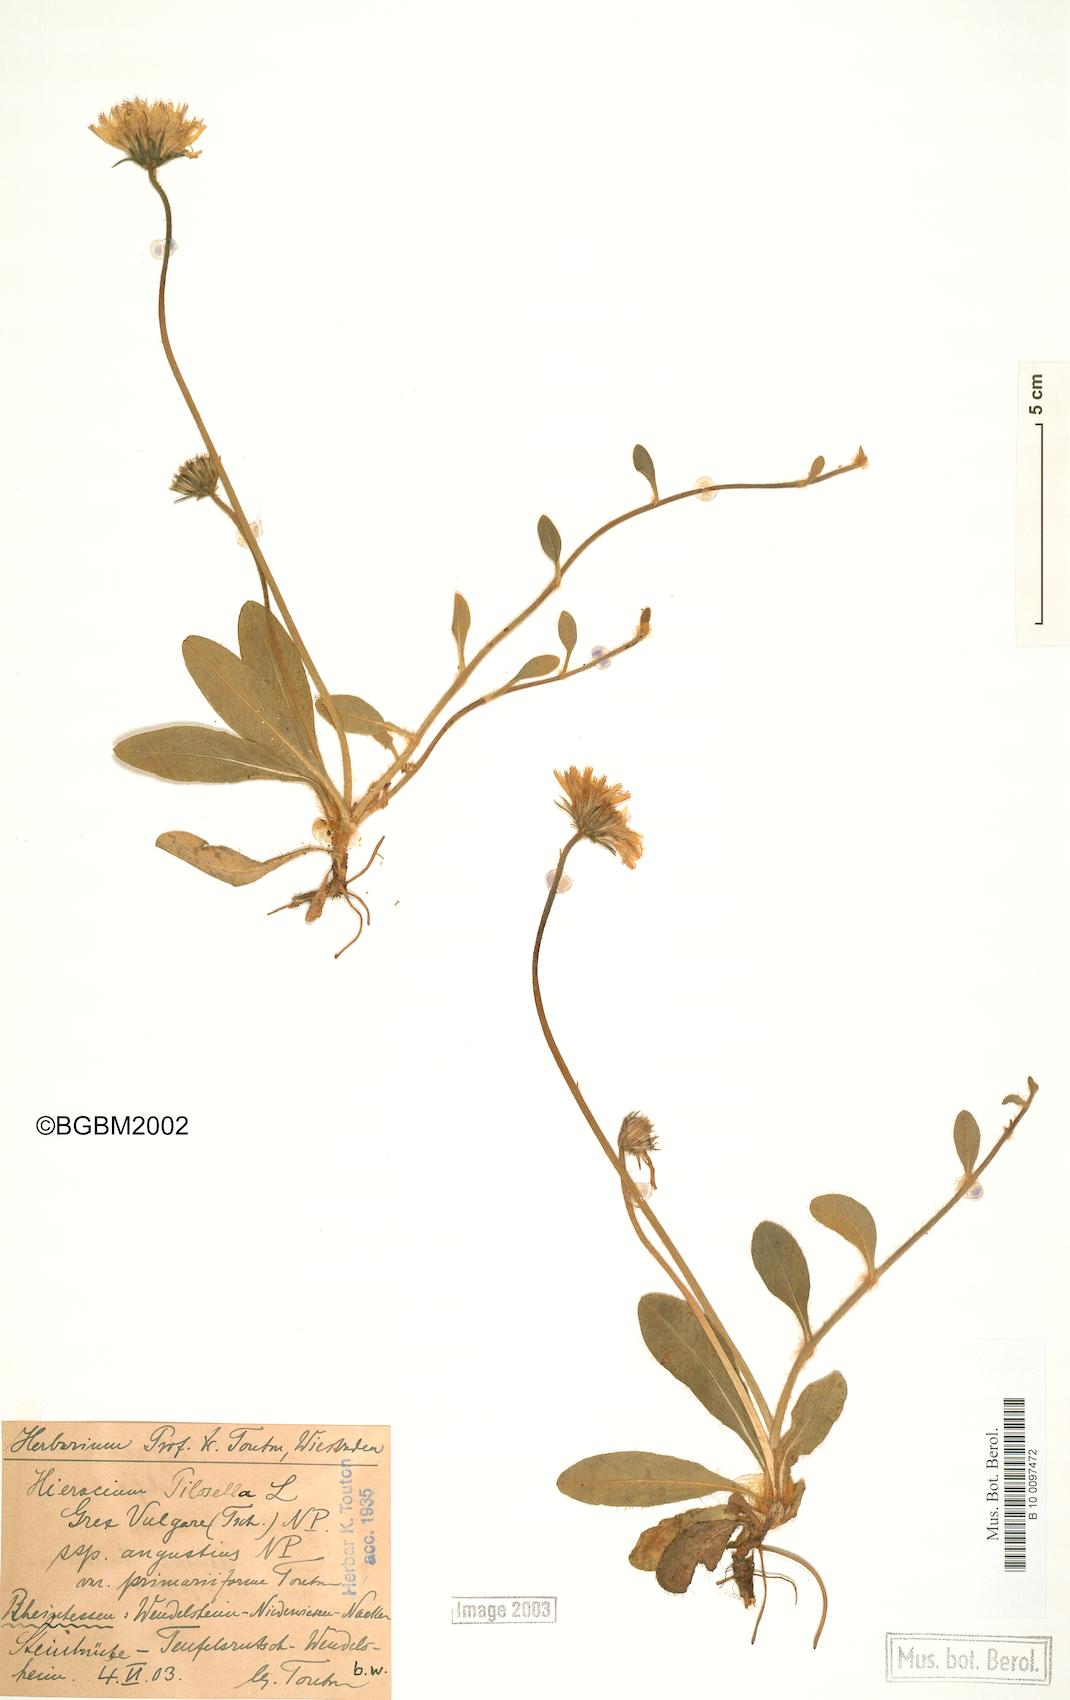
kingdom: Plantae
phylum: Tracheophyta
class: Magnoliopsida
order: Asterales
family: Asteraceae
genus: Pilosella
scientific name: Pilosella officinarum
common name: Mouse-ear hawkweed
